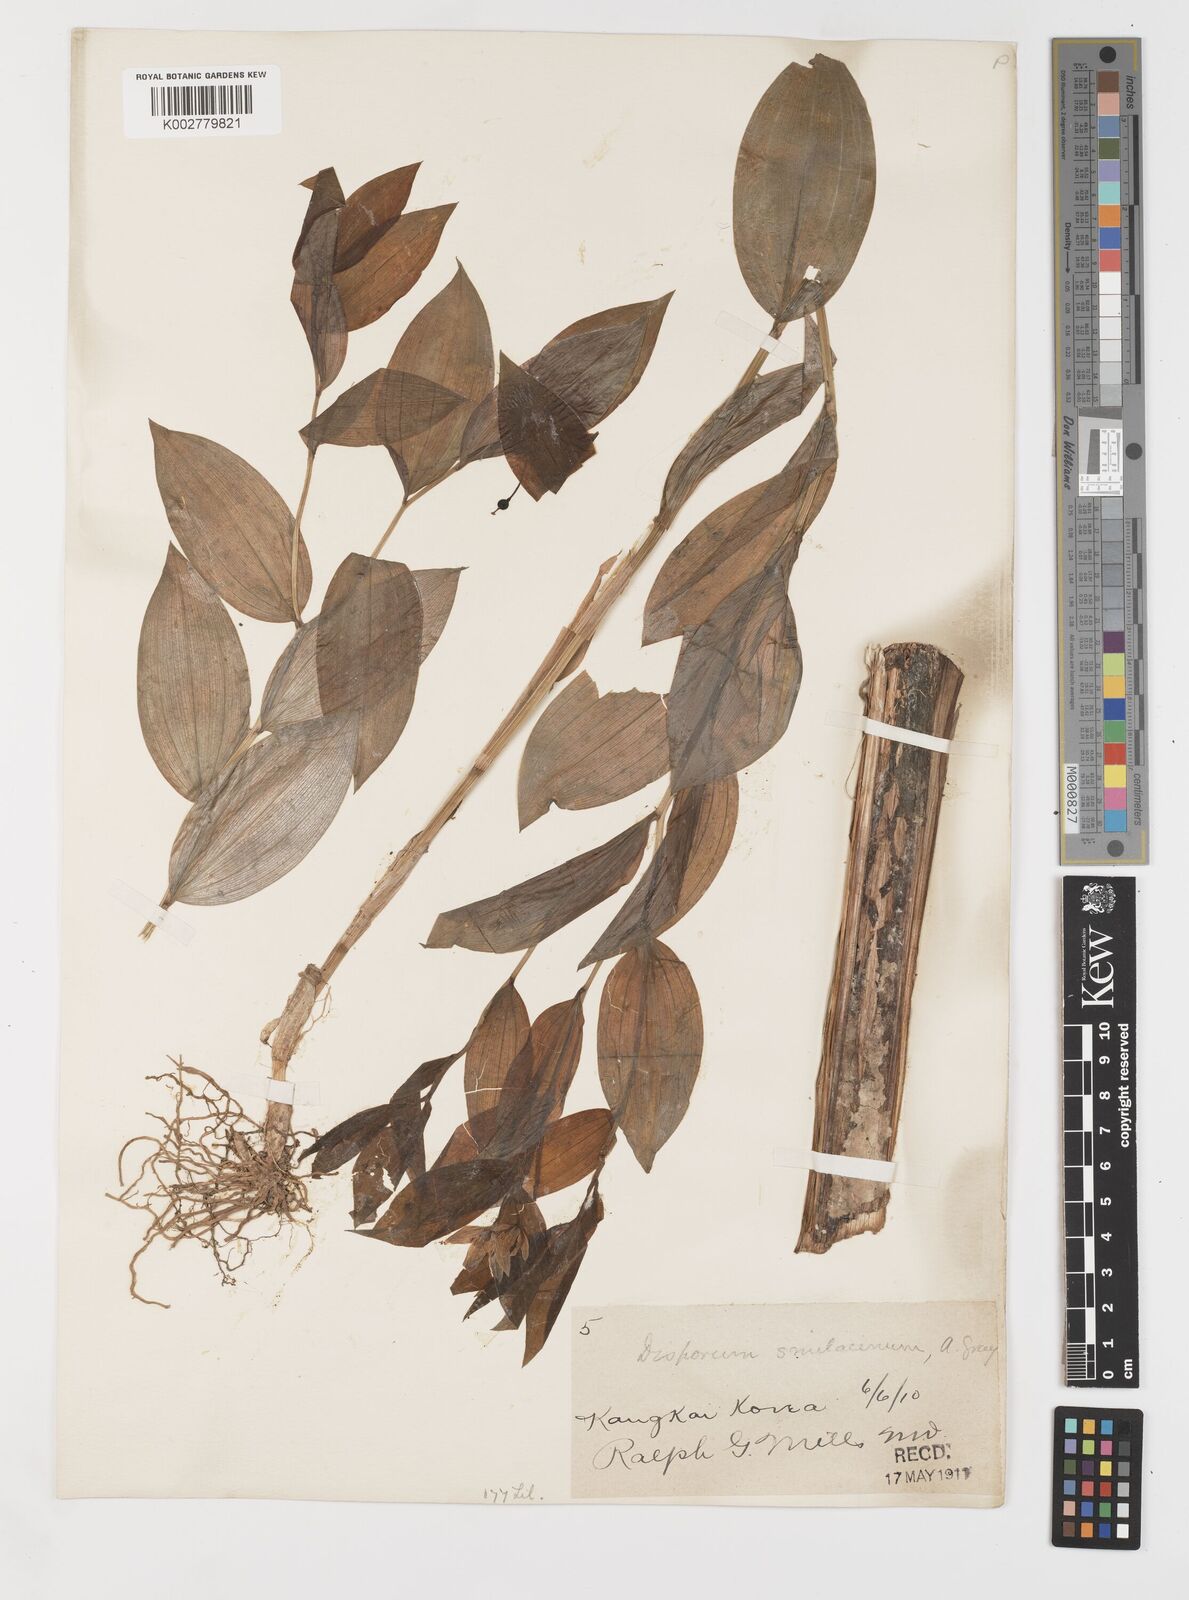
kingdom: Plantae
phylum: Tracheophyta
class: Liliopsida
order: Liliales
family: Colchicaceae
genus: Disporum
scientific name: Disporum smilacinum
